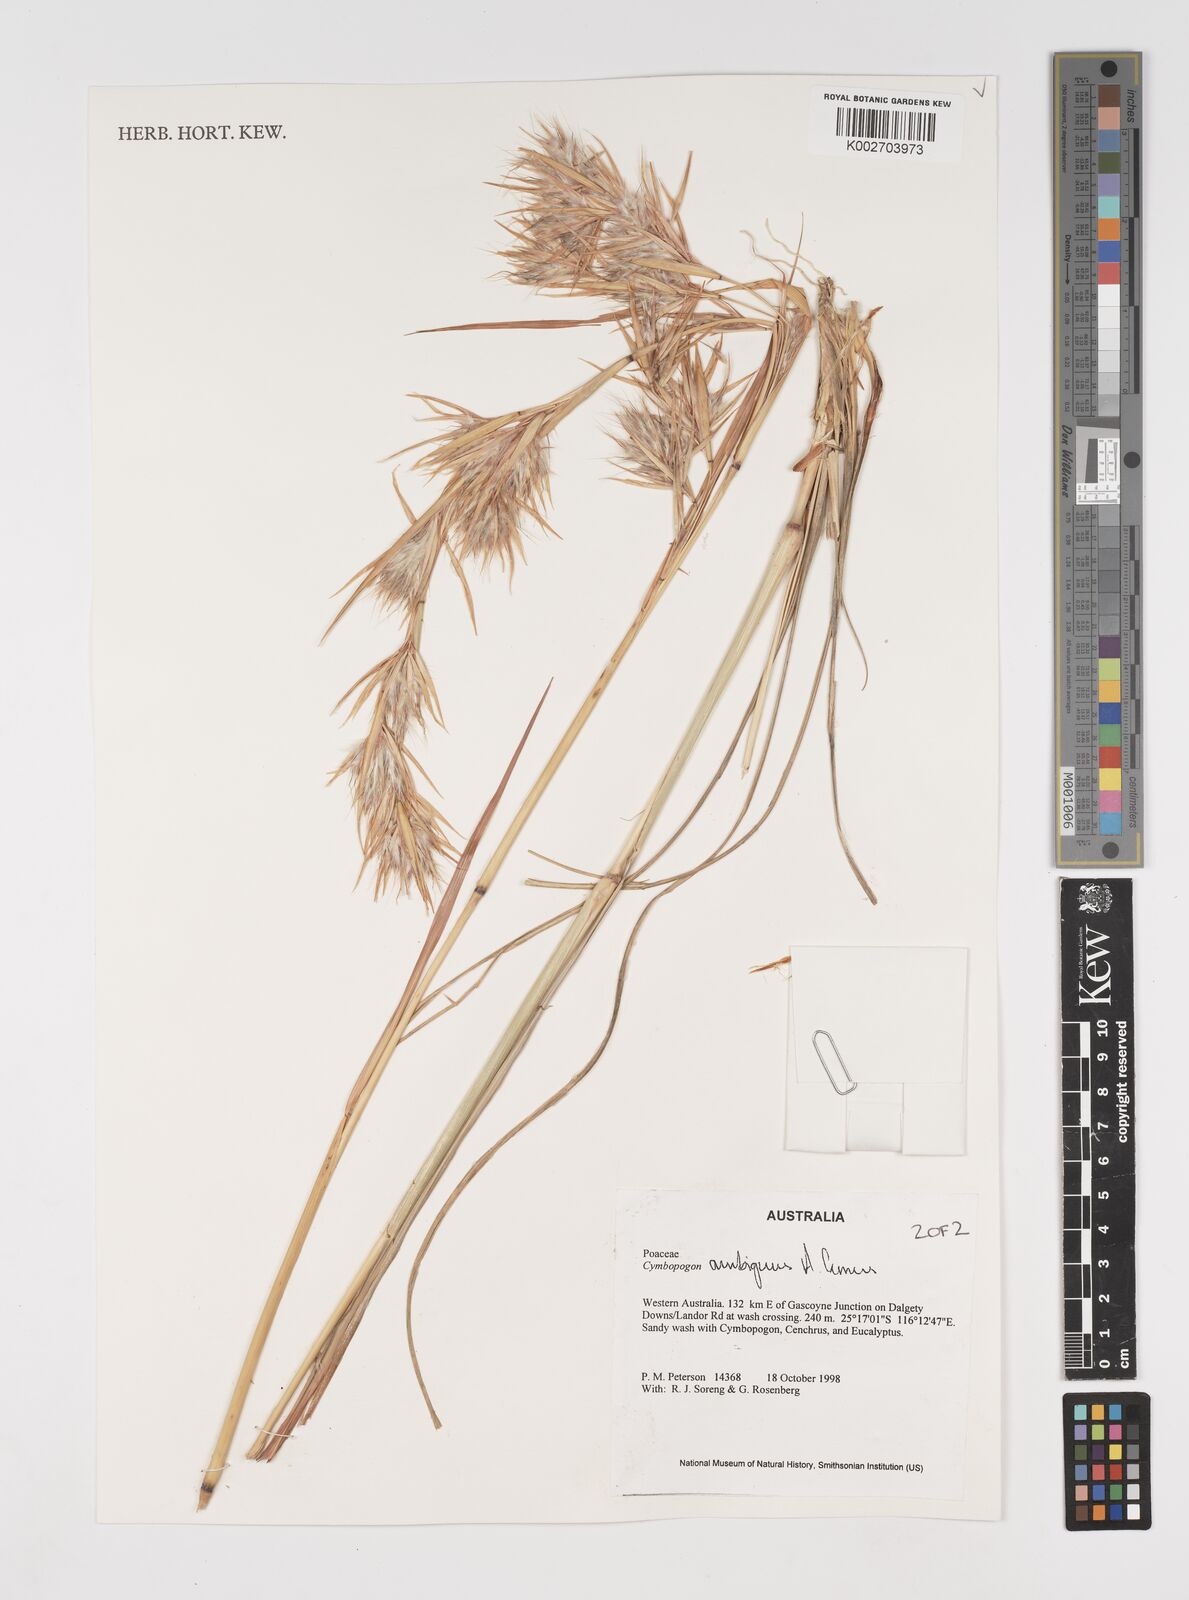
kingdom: Plantae
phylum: Tracheophyta
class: Liliopsida
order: Poales
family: Poaceae
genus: Cymbopogon
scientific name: Cymbopogon ambiguus
